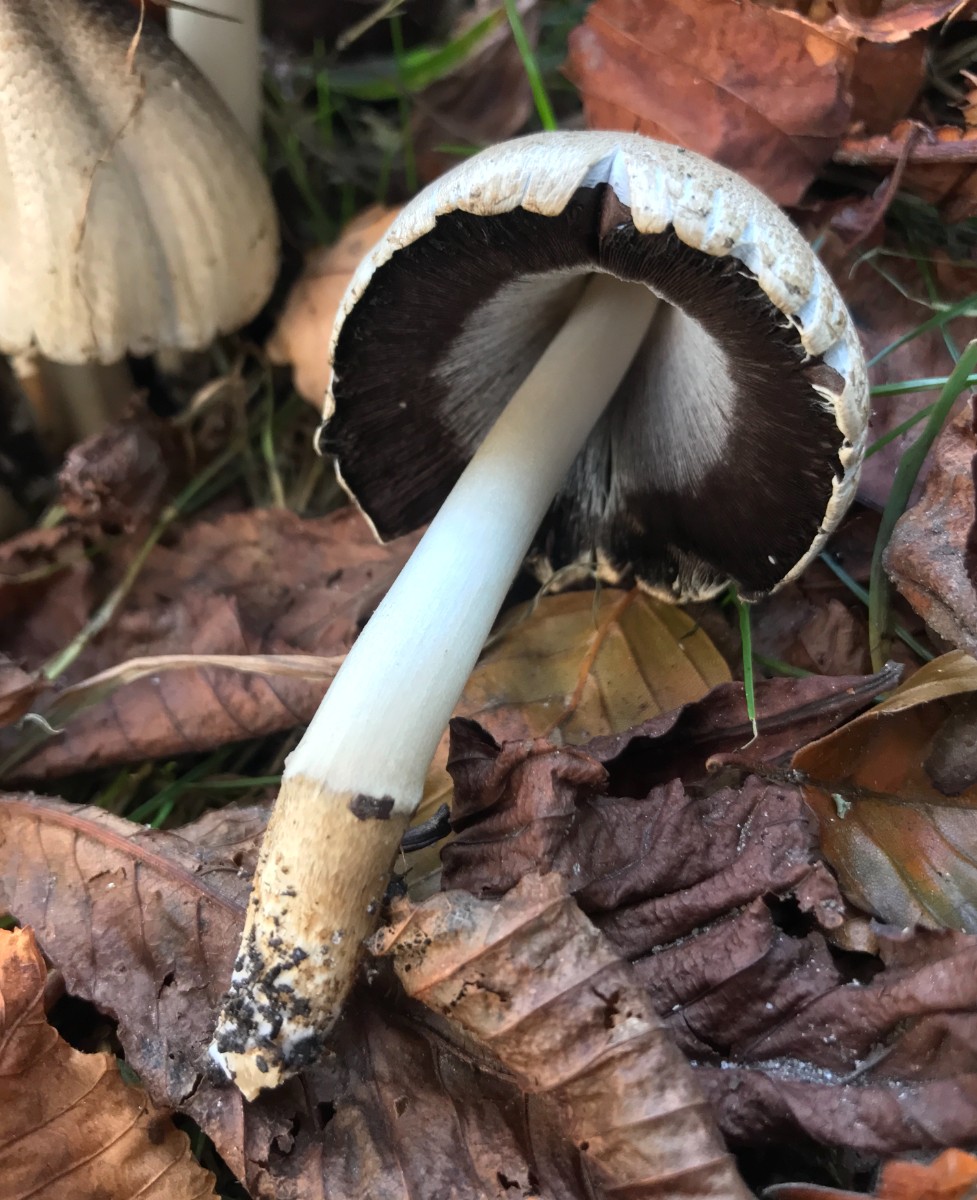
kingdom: Fungi
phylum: Basidiomycota
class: Agaricomycetes
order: Agaricales
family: Psathyrellaceae
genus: Coprinopsis
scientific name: Coprinopsis atramentaria
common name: almindelig blækhat
